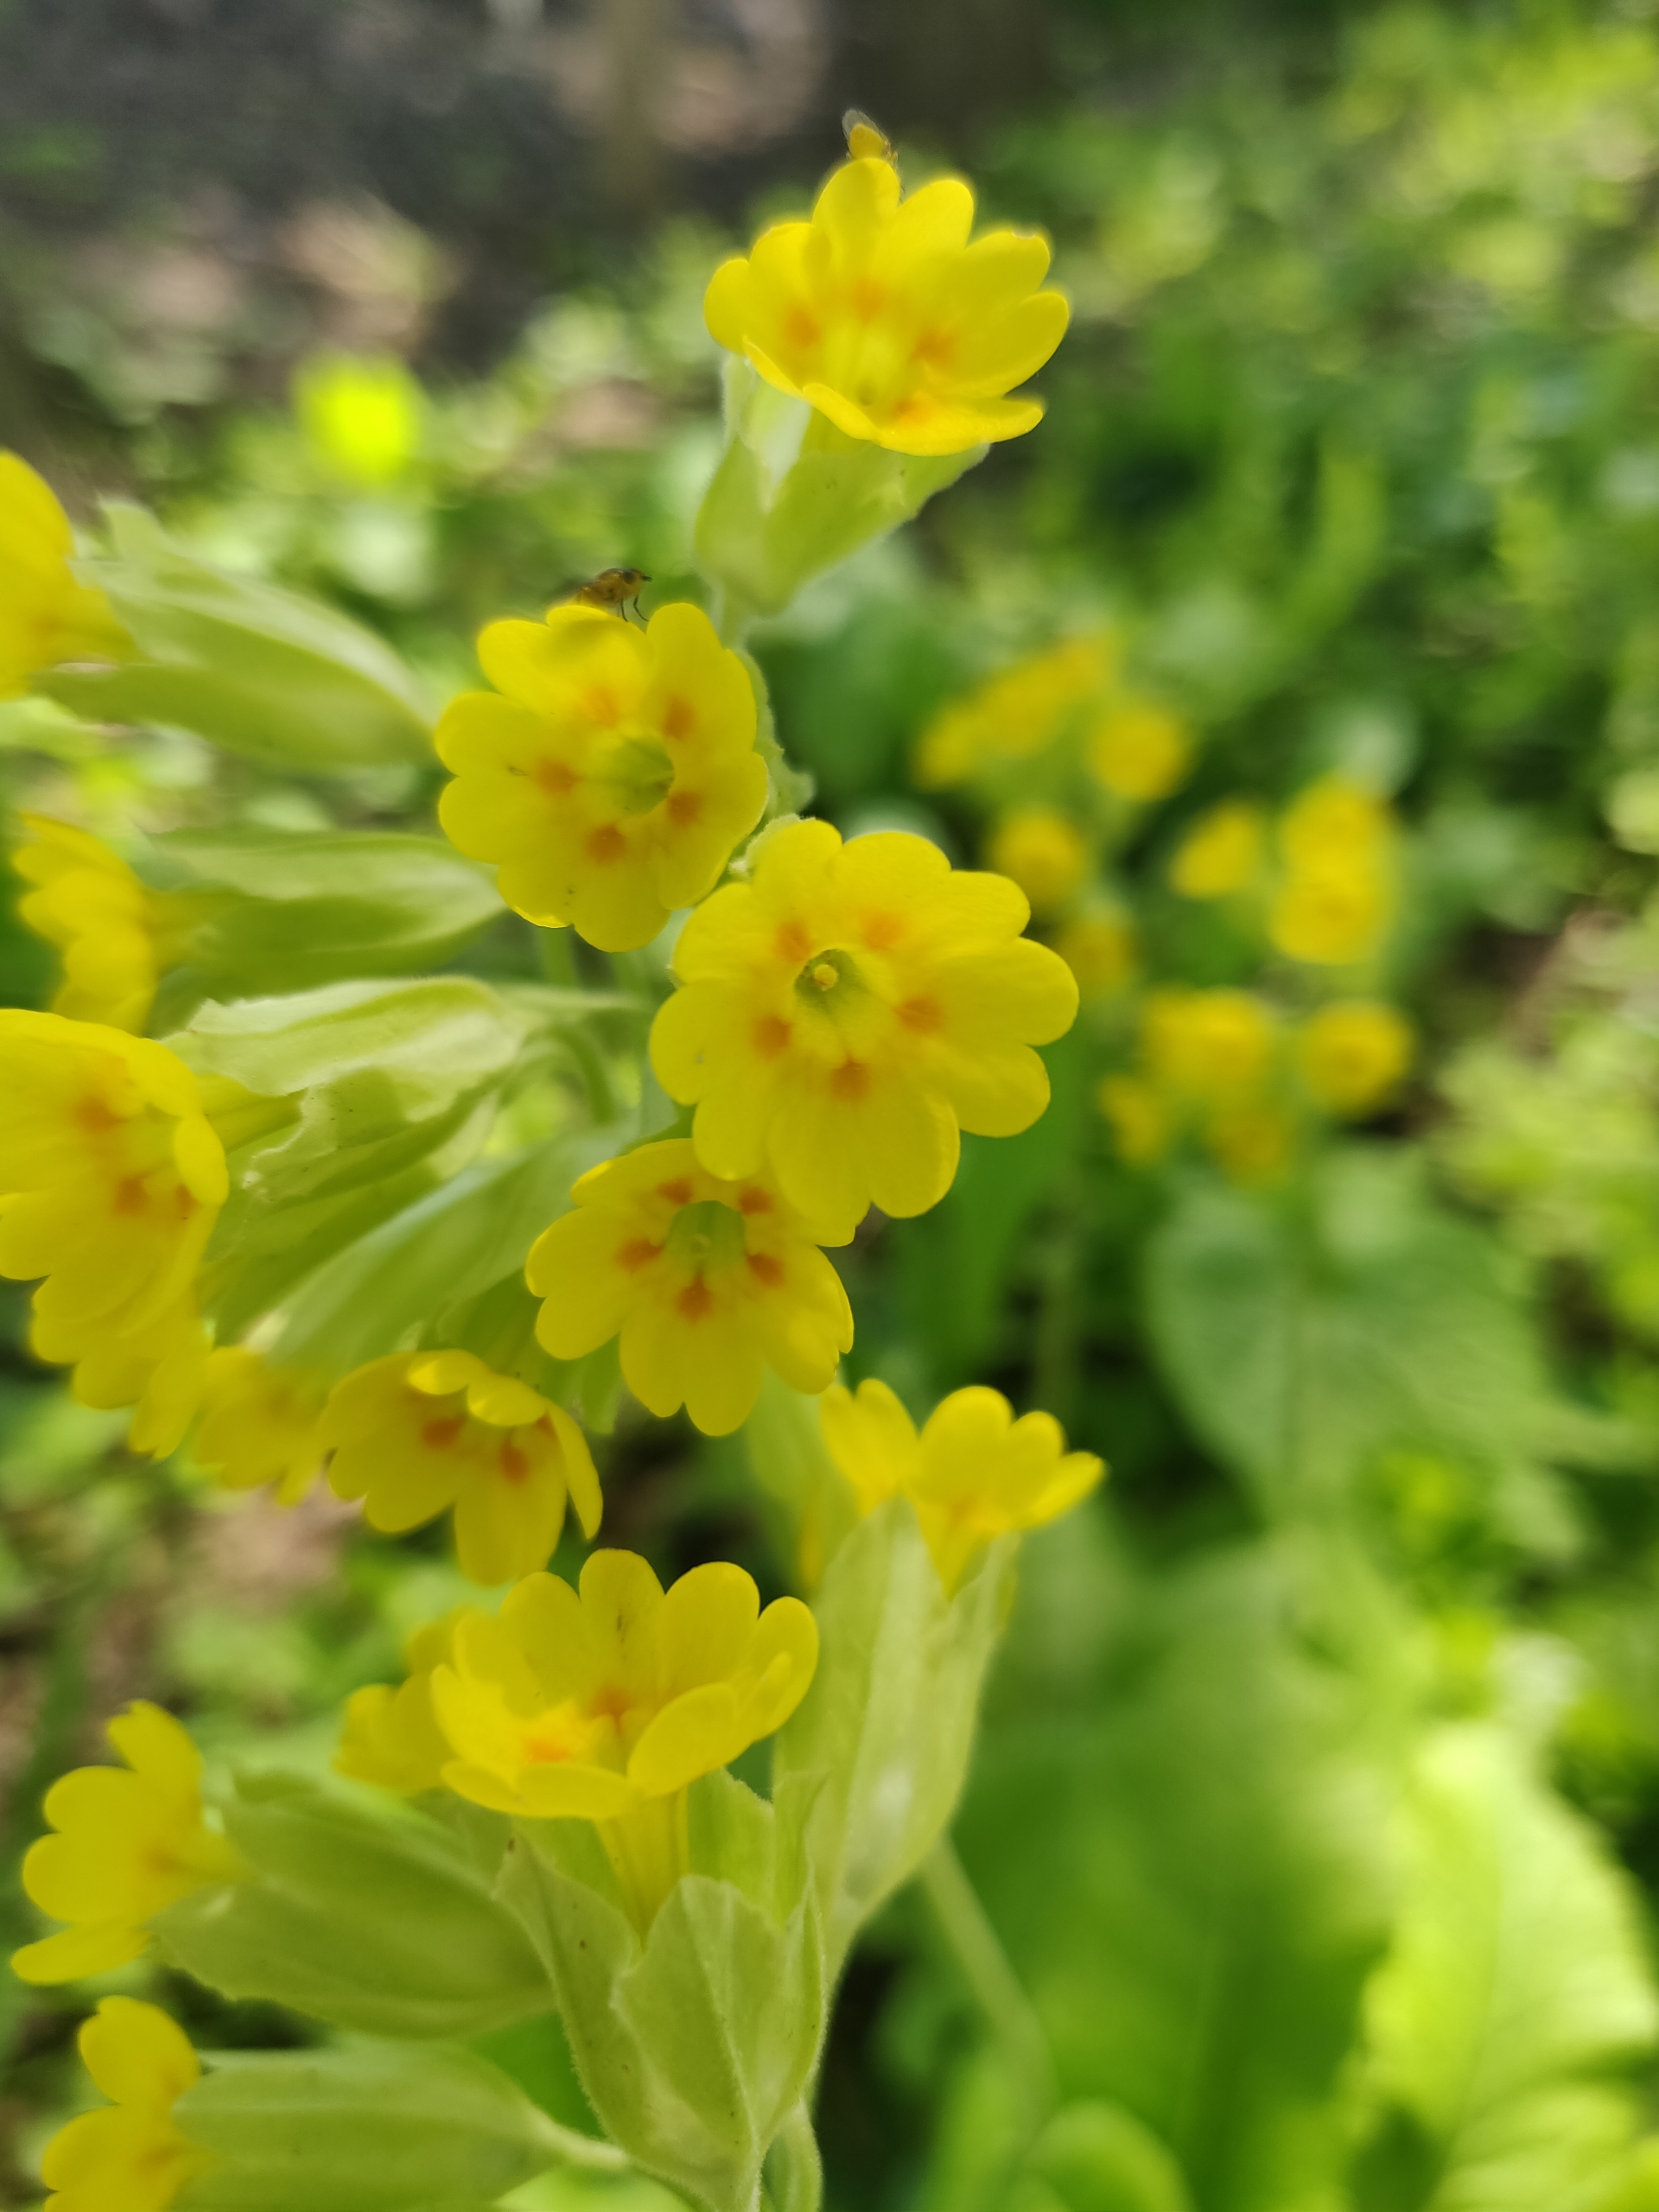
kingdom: Plantae
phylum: Tracheophyta
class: Magnoliopsida
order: Ericales
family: Primulaceae
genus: Primula
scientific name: Primula veris
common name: Hulkravet kodriver
